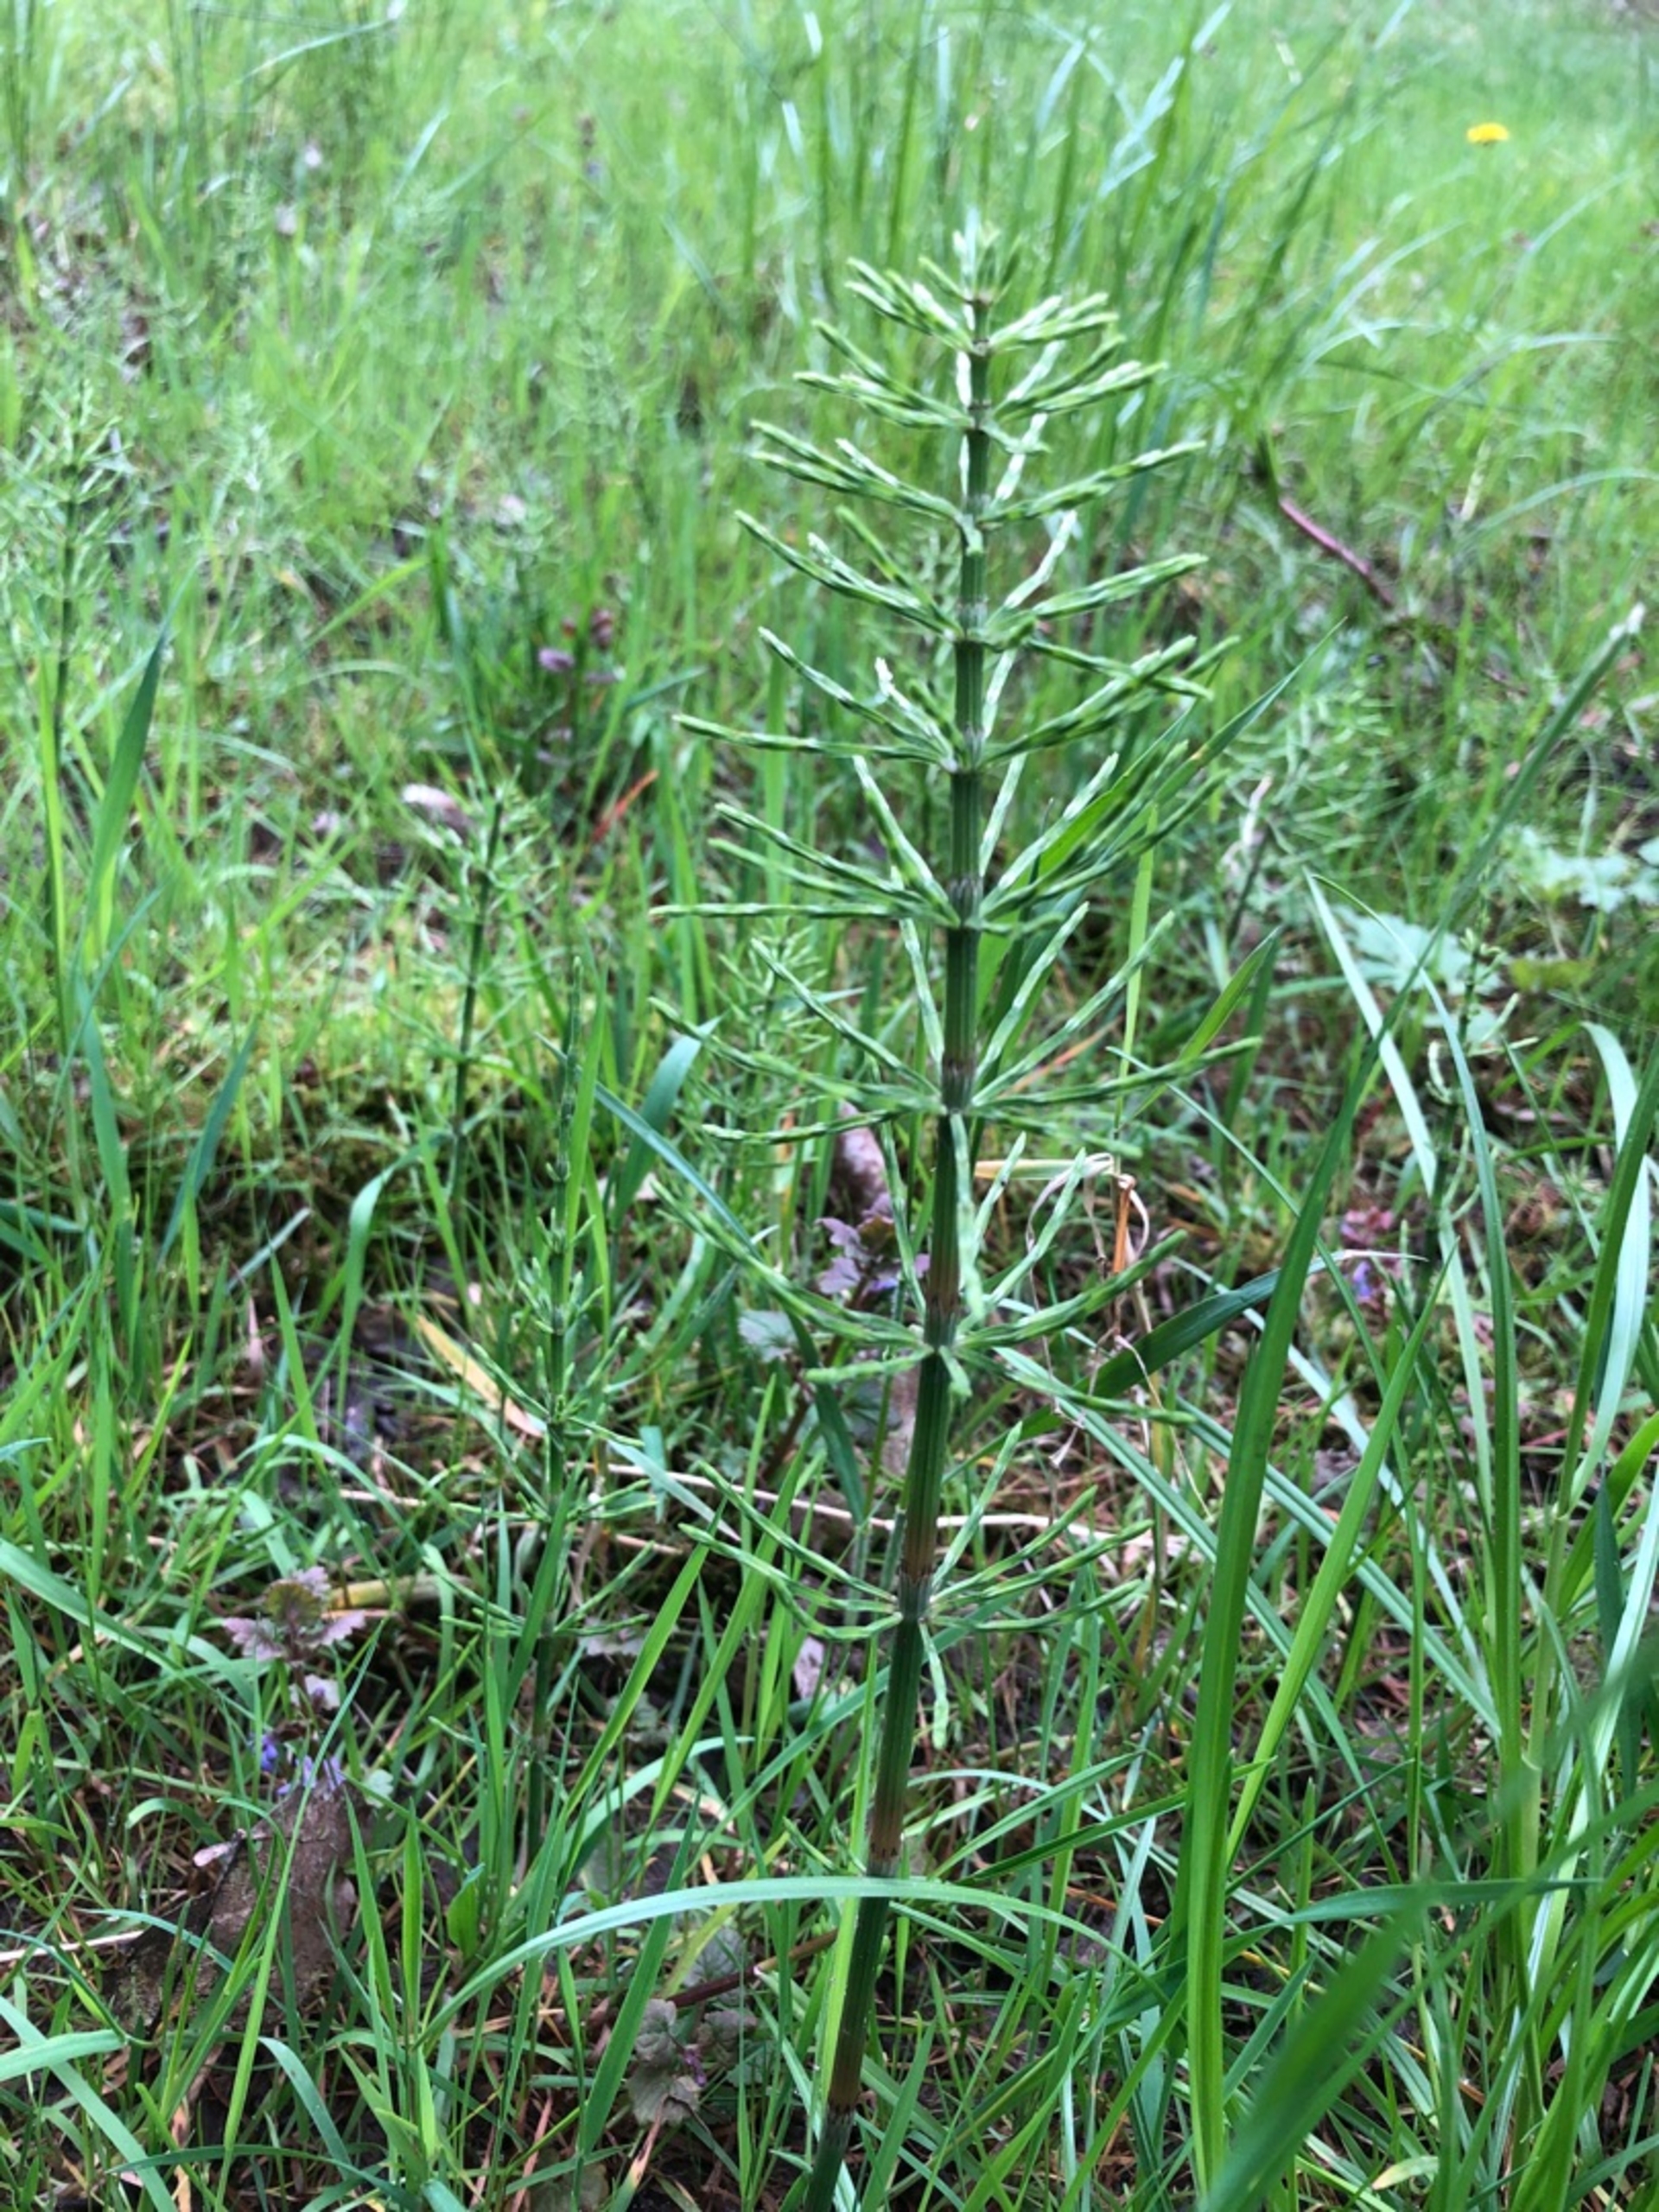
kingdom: Plantae
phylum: Tracheophyta
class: Polypodiopsida
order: Equisetales
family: Equisetaceae
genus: Equisetum
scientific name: Equisetum arvense
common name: Ager-padderok
